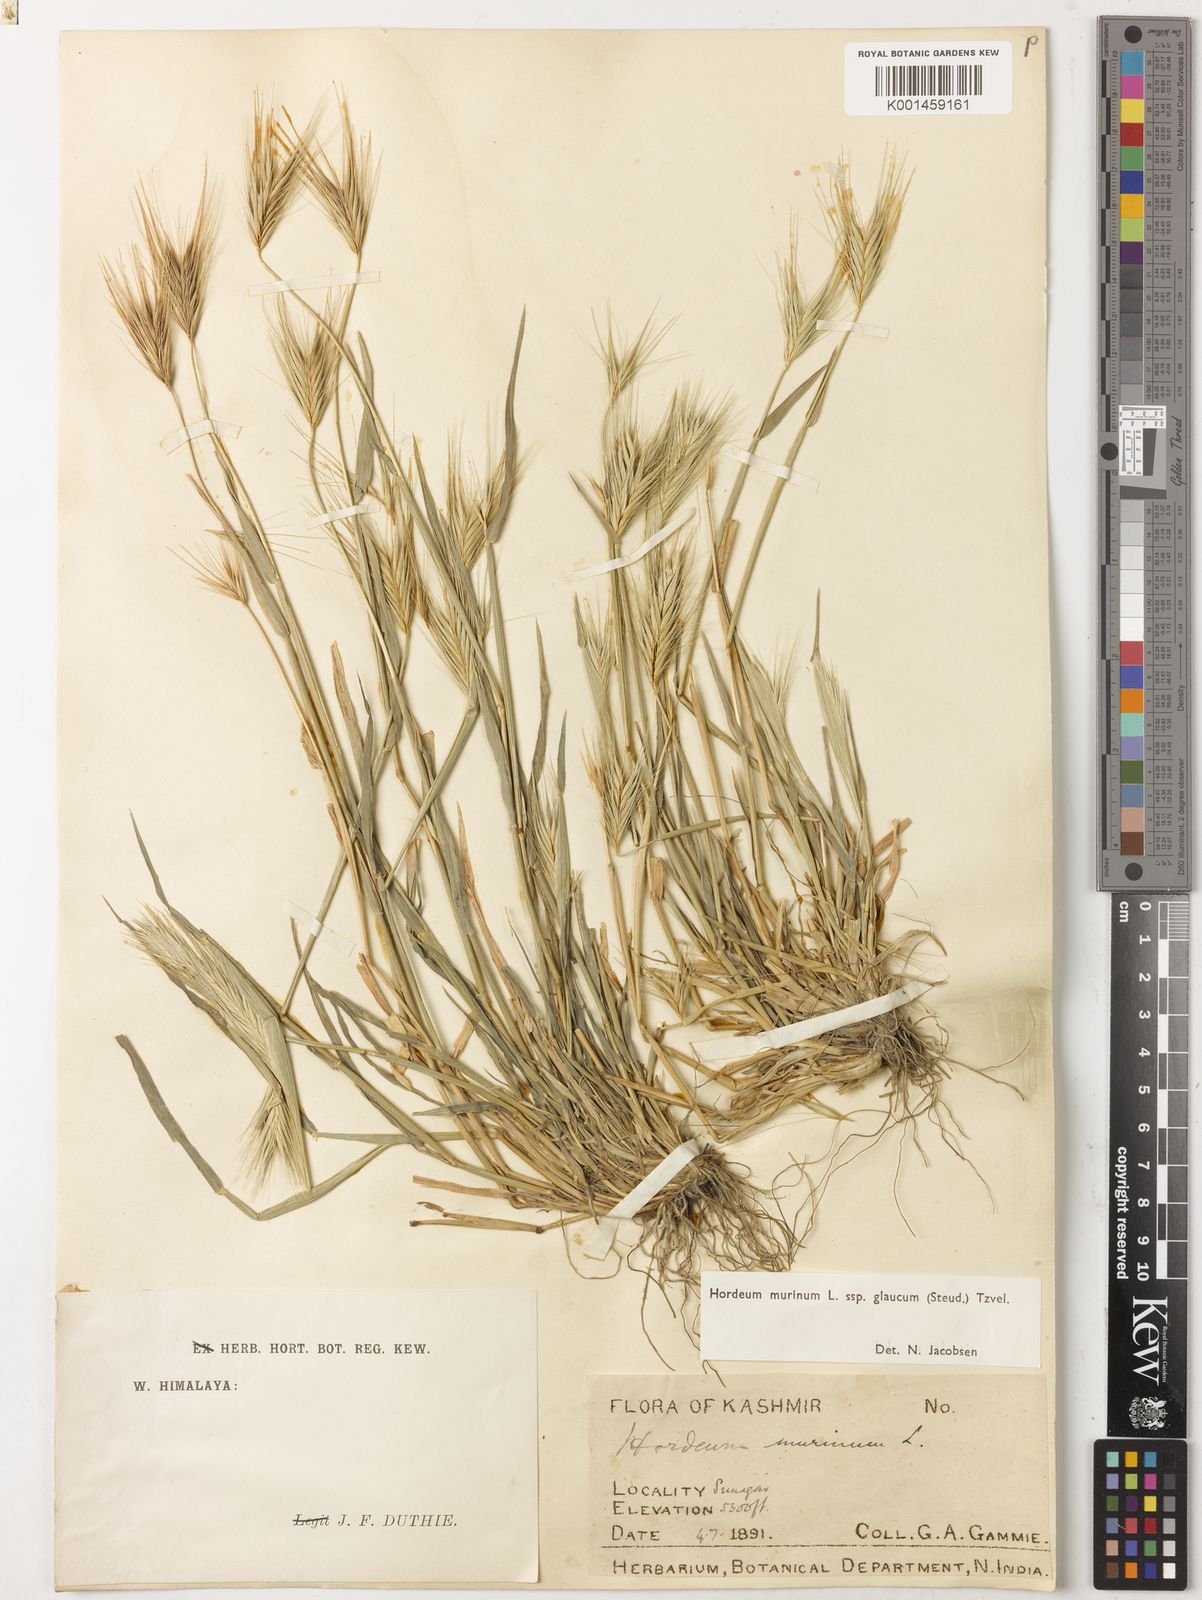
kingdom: Plantae
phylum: Tracheophyta
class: Liliopsida
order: Poales
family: Poaceae
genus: Hordeum
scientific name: Hordeum murinum
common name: Wall barley
